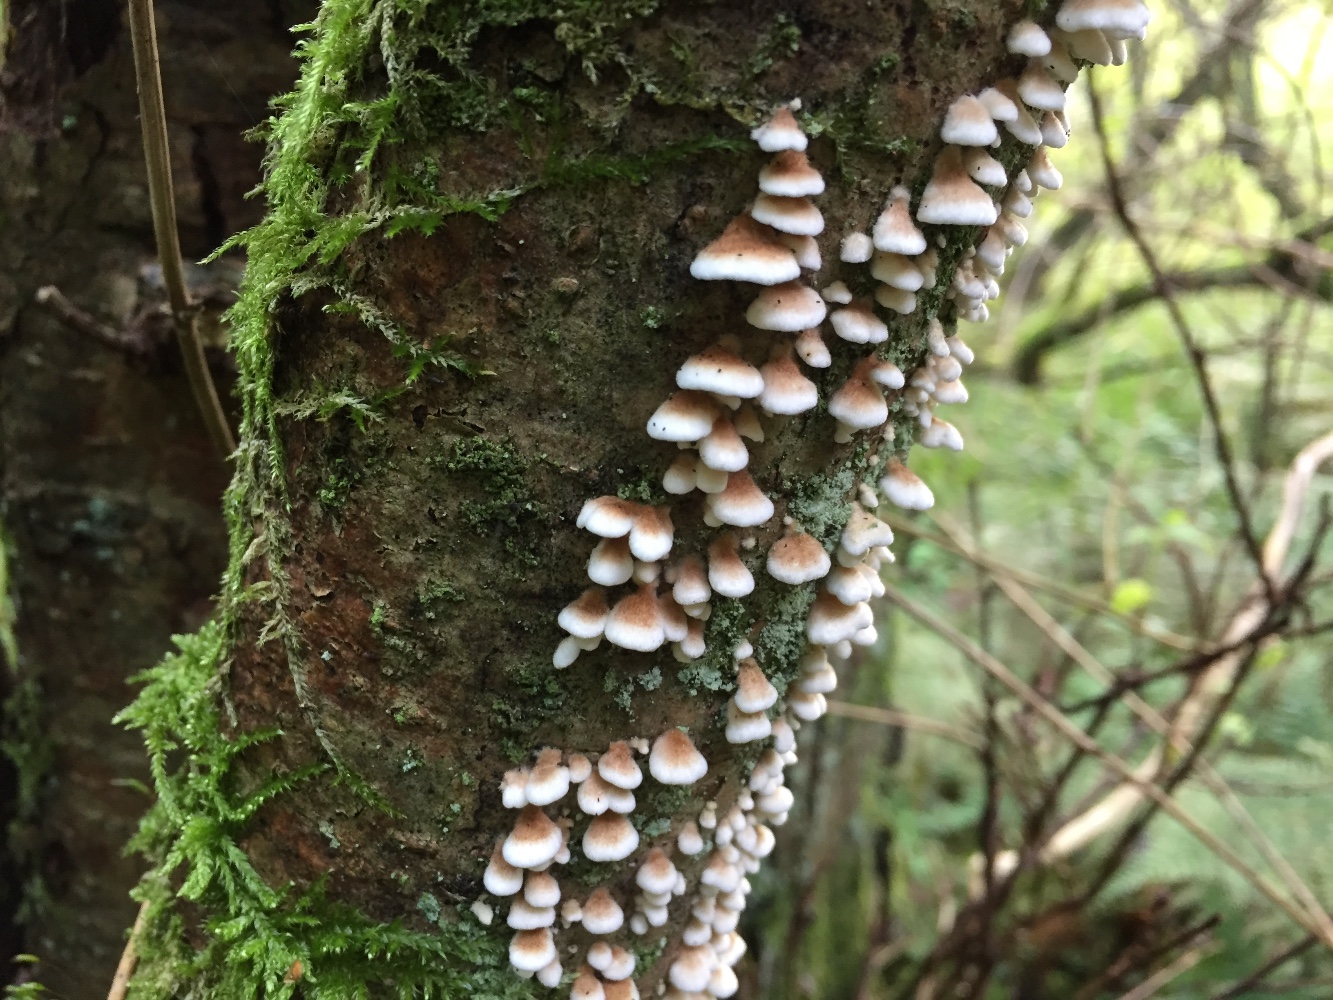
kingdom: Fungi
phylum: Basidiomycota
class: Agaricomycetes
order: Amylocorticiales
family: Amylocorticiaceae
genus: Plicaturopsis
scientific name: Plicaturopsis crispa
